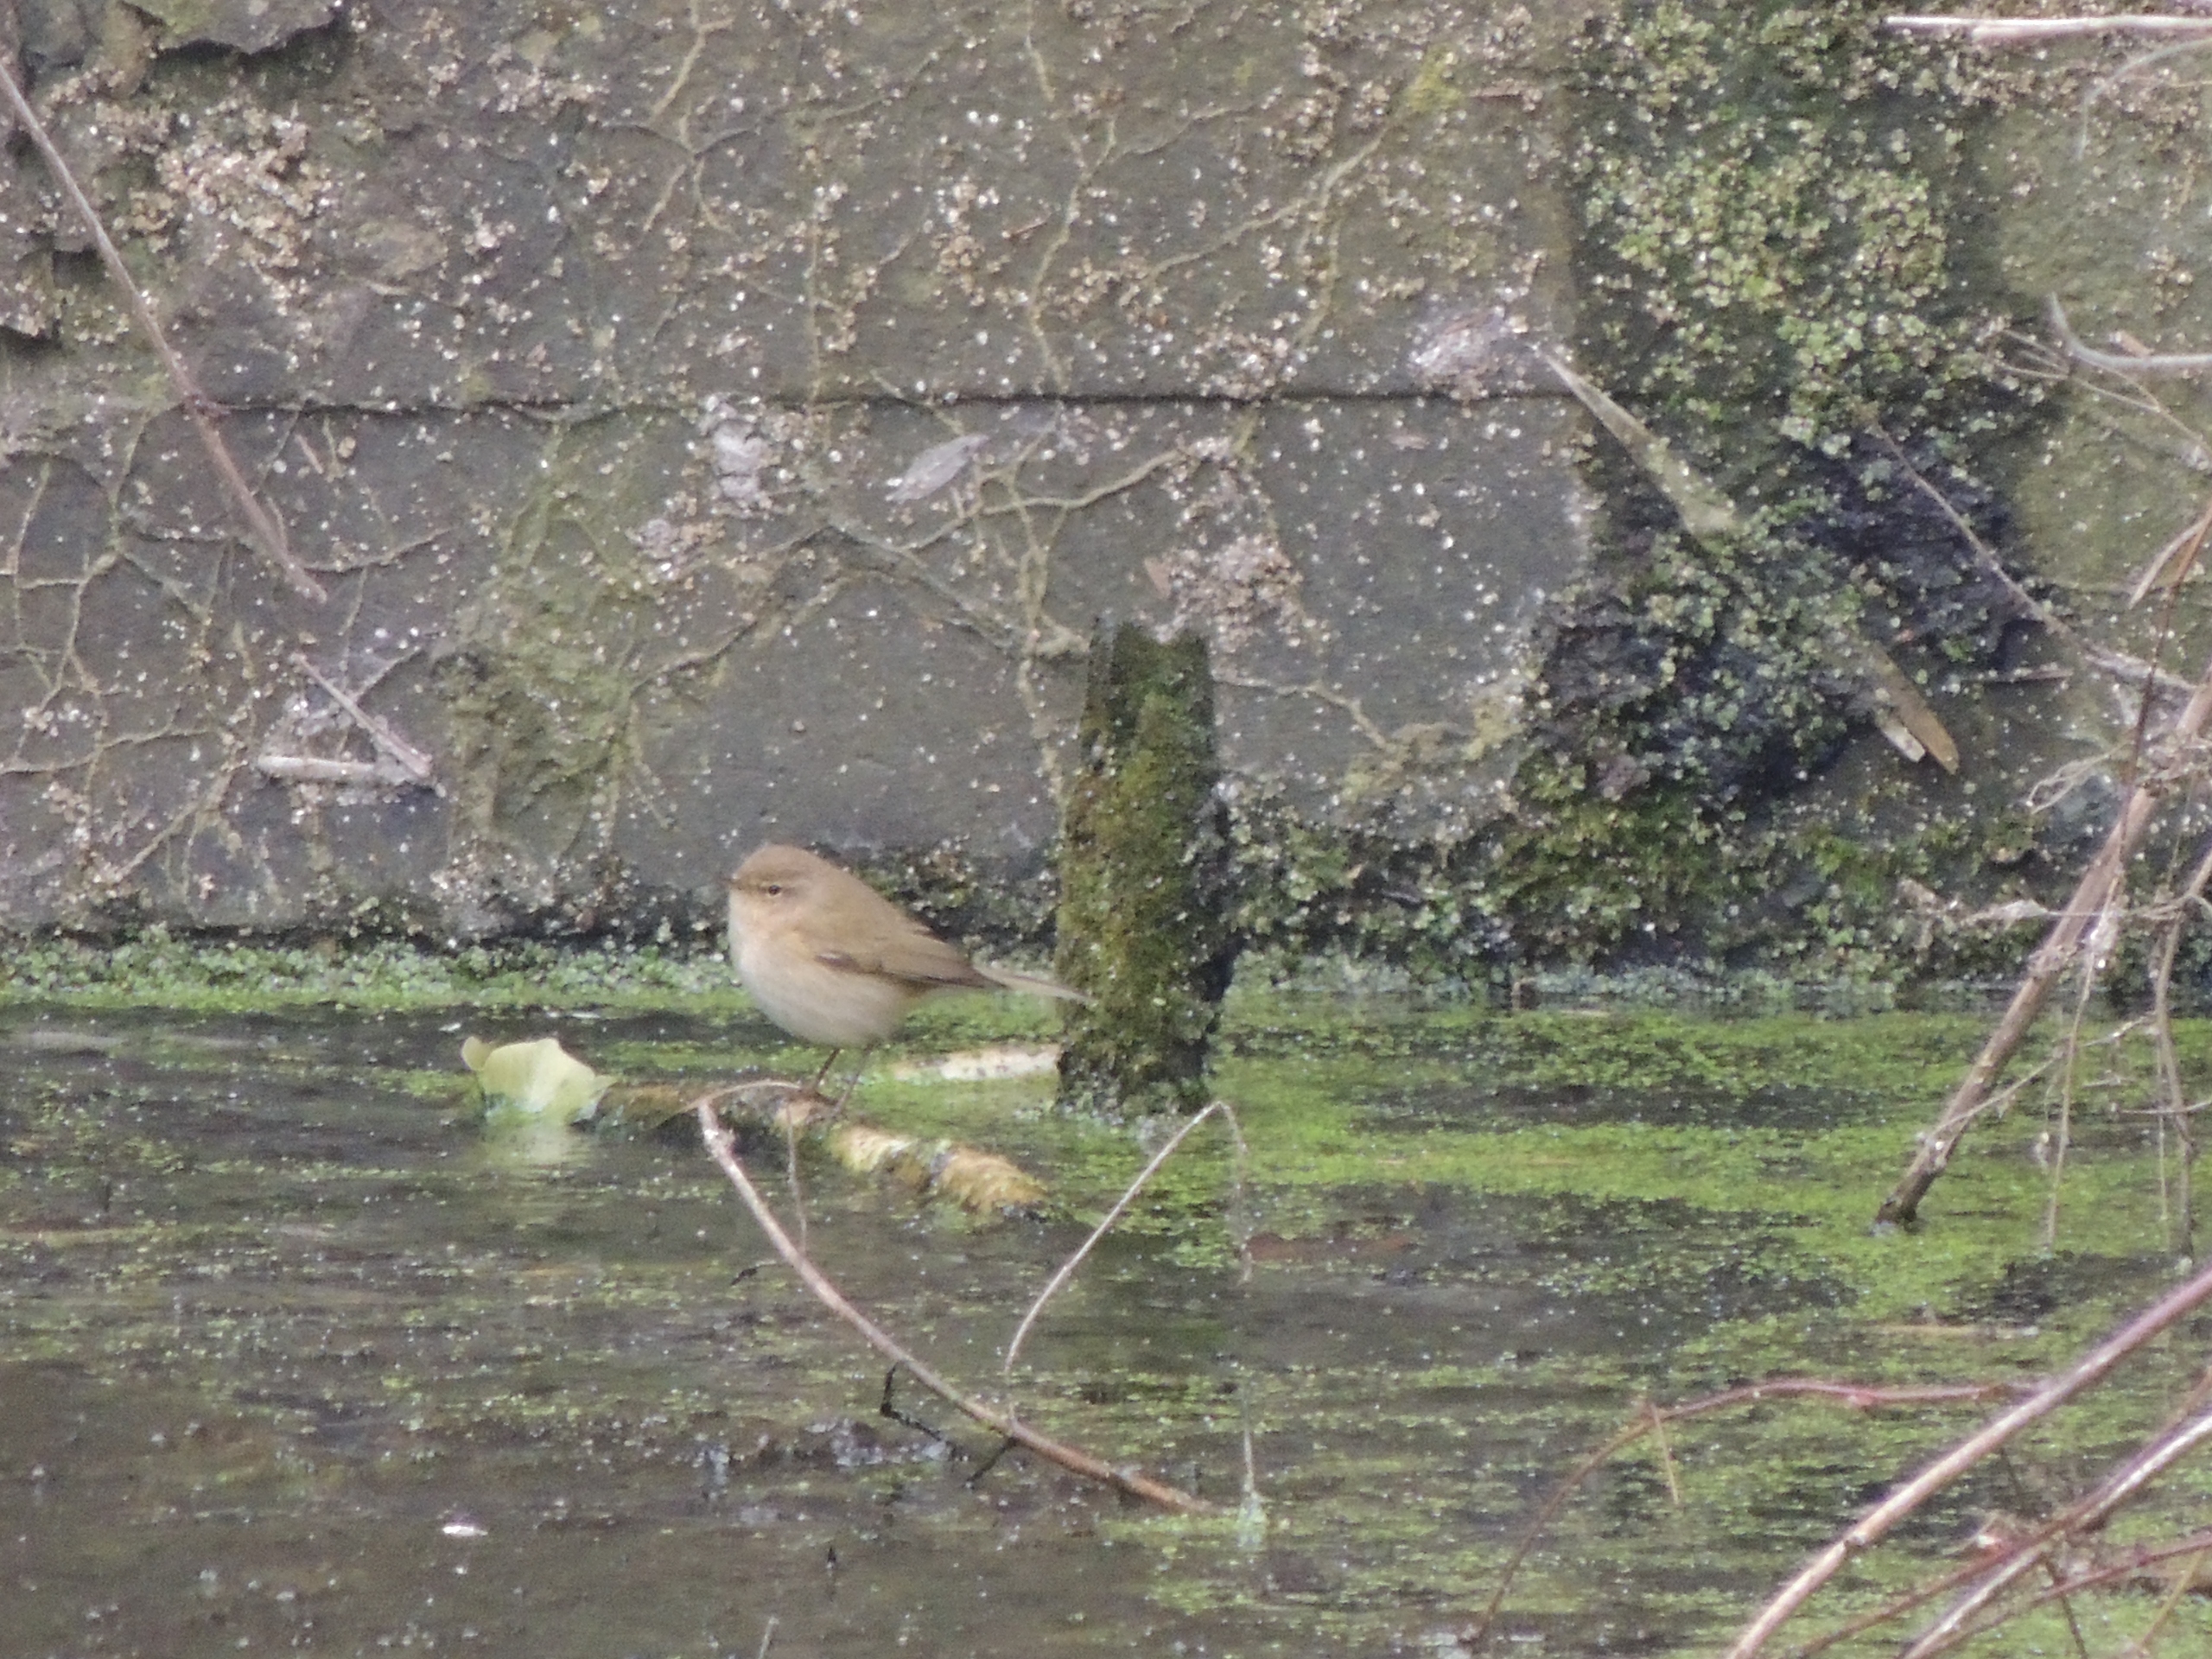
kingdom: Animalia
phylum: Chordata
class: Aves
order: Passeriformes
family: Phylloscopidae
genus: Phylloscopus
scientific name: Phylloscopus collybita
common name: Gransanger
